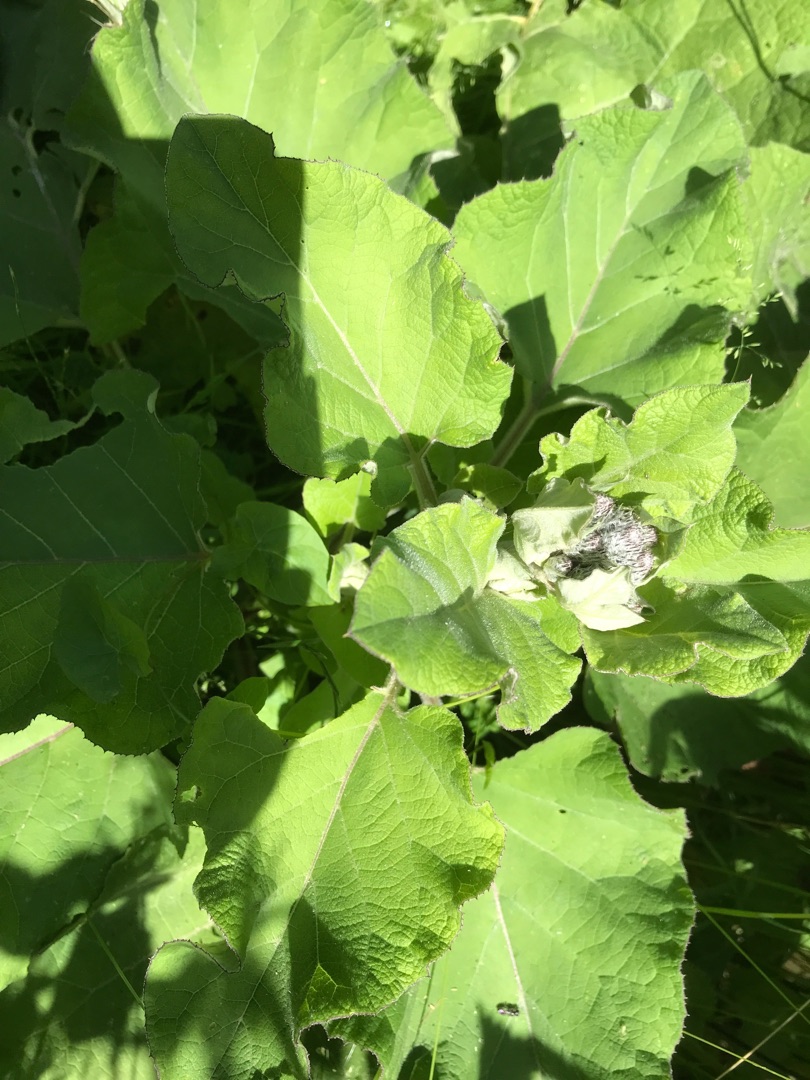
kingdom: Plantae
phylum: Tracheophyta
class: Magnoliopsida
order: Asterales
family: Asteraceae
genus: Arctium
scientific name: Arctium tomentosum
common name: Filtet burre
